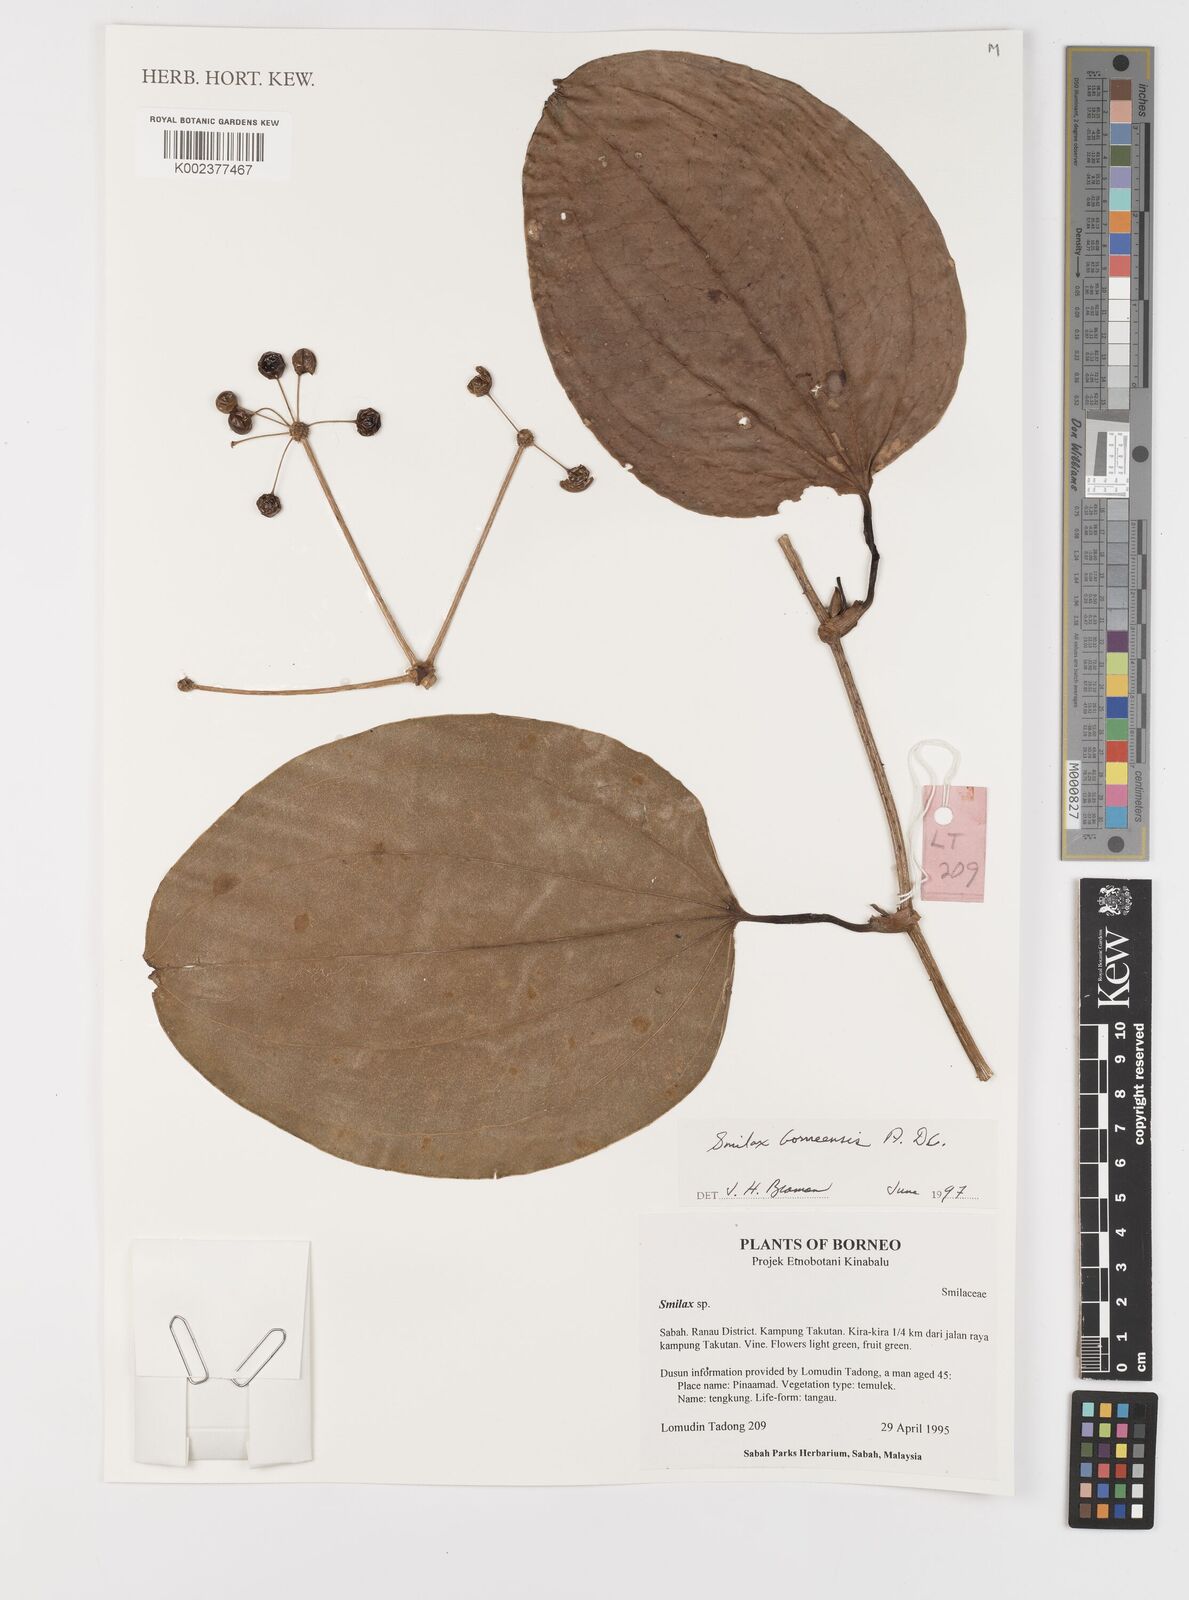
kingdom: Plantae
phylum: Tracheophyta
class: Liliopsida
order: Liliales
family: Smilacaceae
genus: Smilax
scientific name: Smilax borneensis
